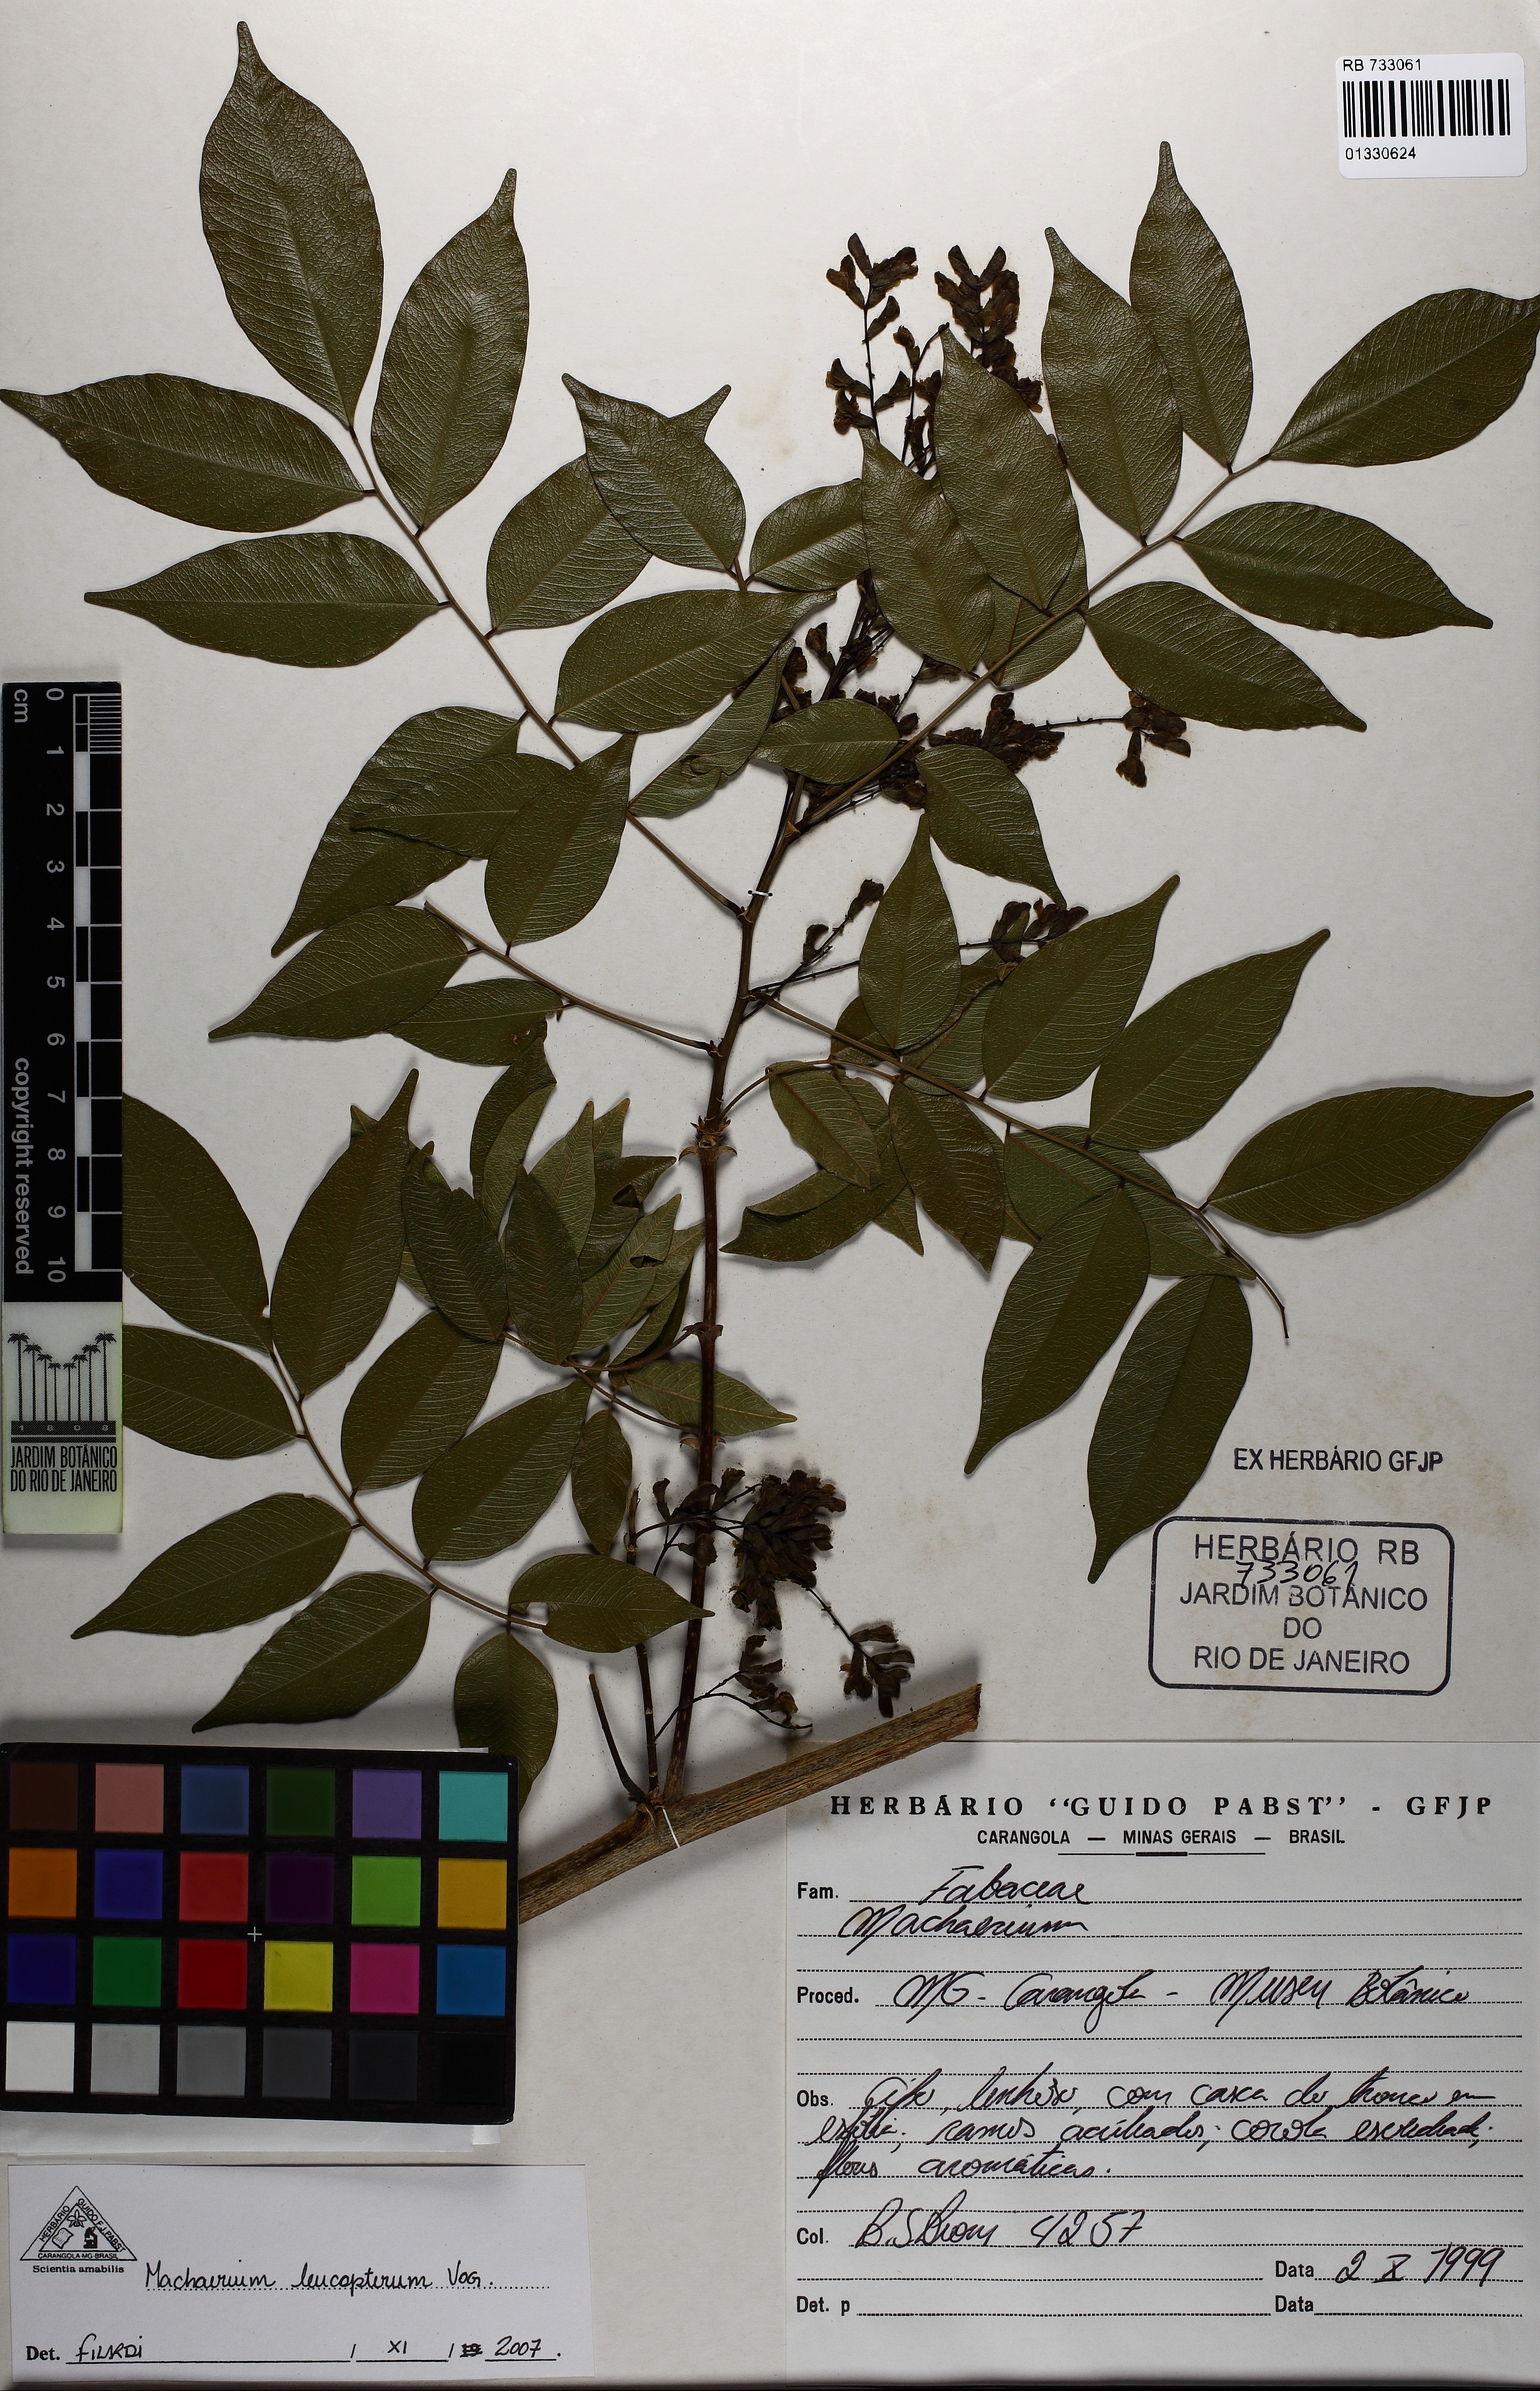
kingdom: Plantae
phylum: Tracheophyta
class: Magnoliopsida
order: Fabales
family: Fabaceae
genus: Machaerium
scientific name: Machaerium leucopterum
